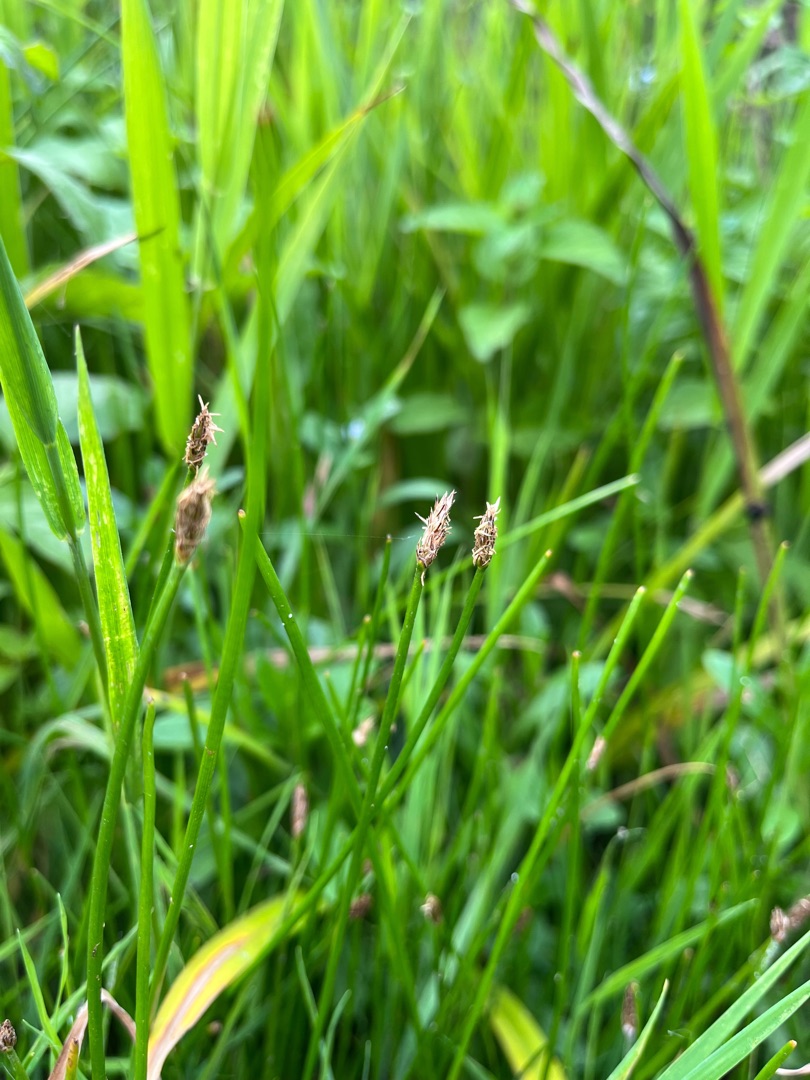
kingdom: Plantae
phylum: Tracheophyta
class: Liliopsida
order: Poales
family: Cyperaceae
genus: Eleocharis
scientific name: Eleocharis palustris
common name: Almindelig sumpstrå
